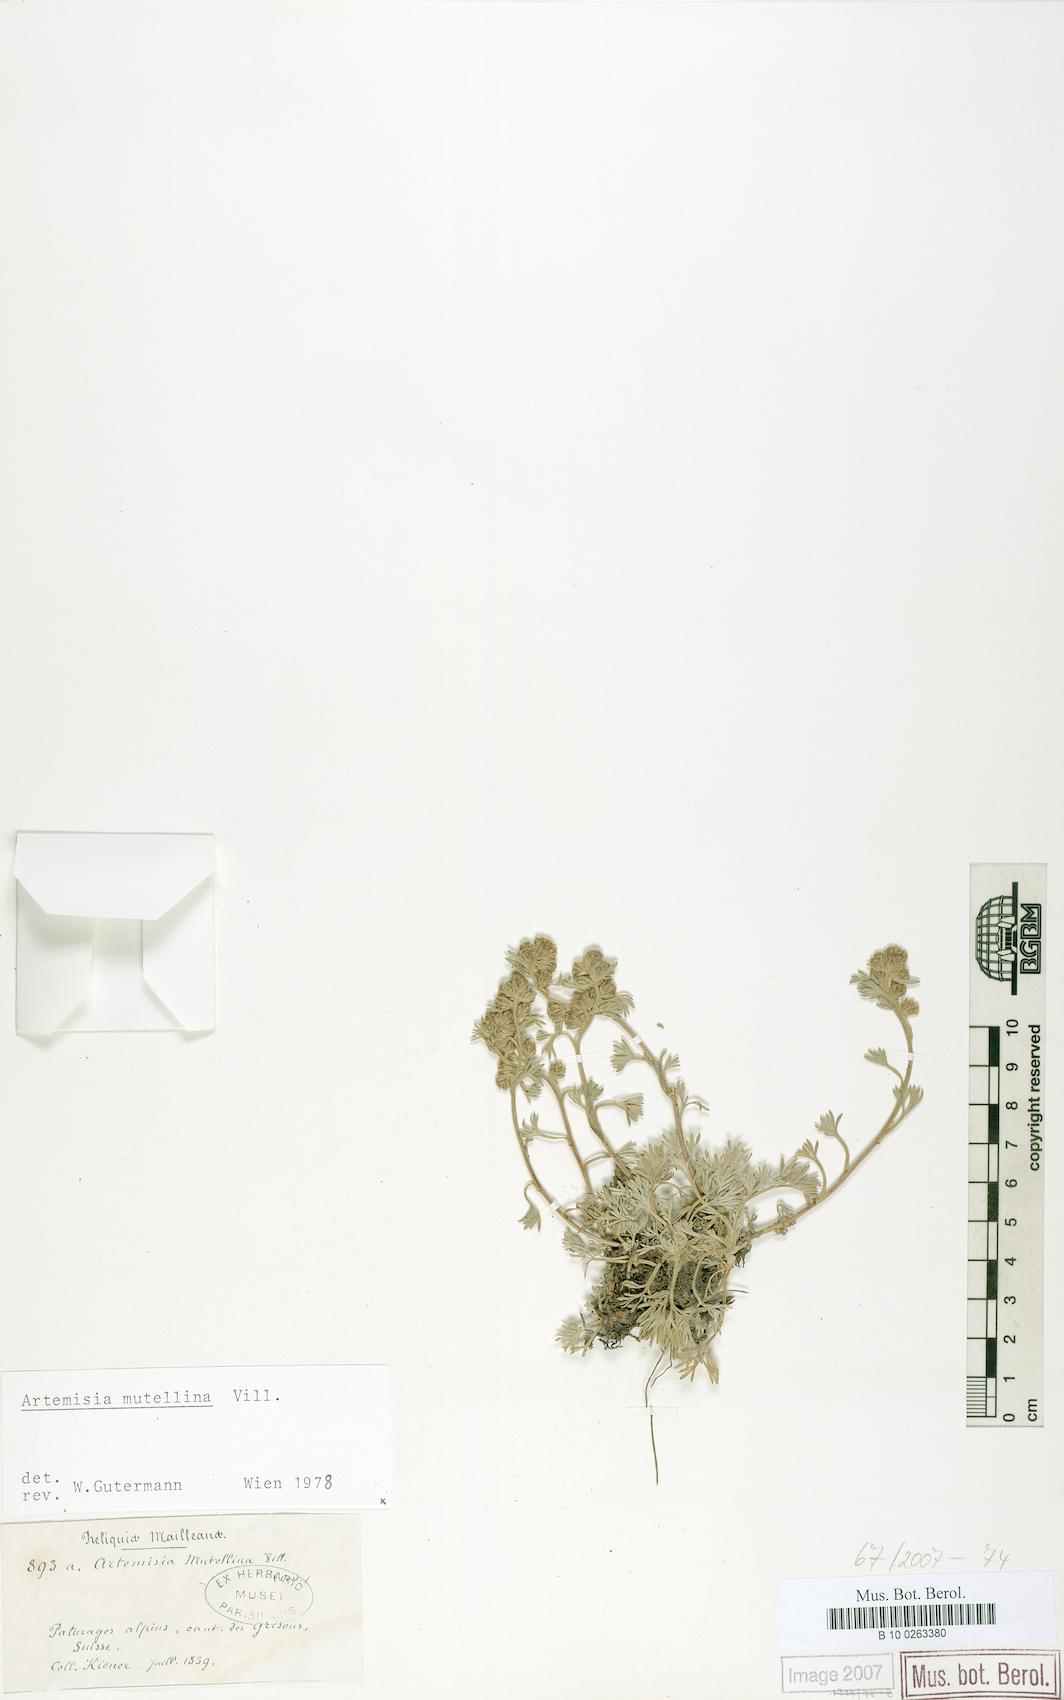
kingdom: Plantae
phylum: Tracheophyta
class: Magnoliopsida
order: Asterales
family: Asteraceae
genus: Artemisia
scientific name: Artemisia mutellina
